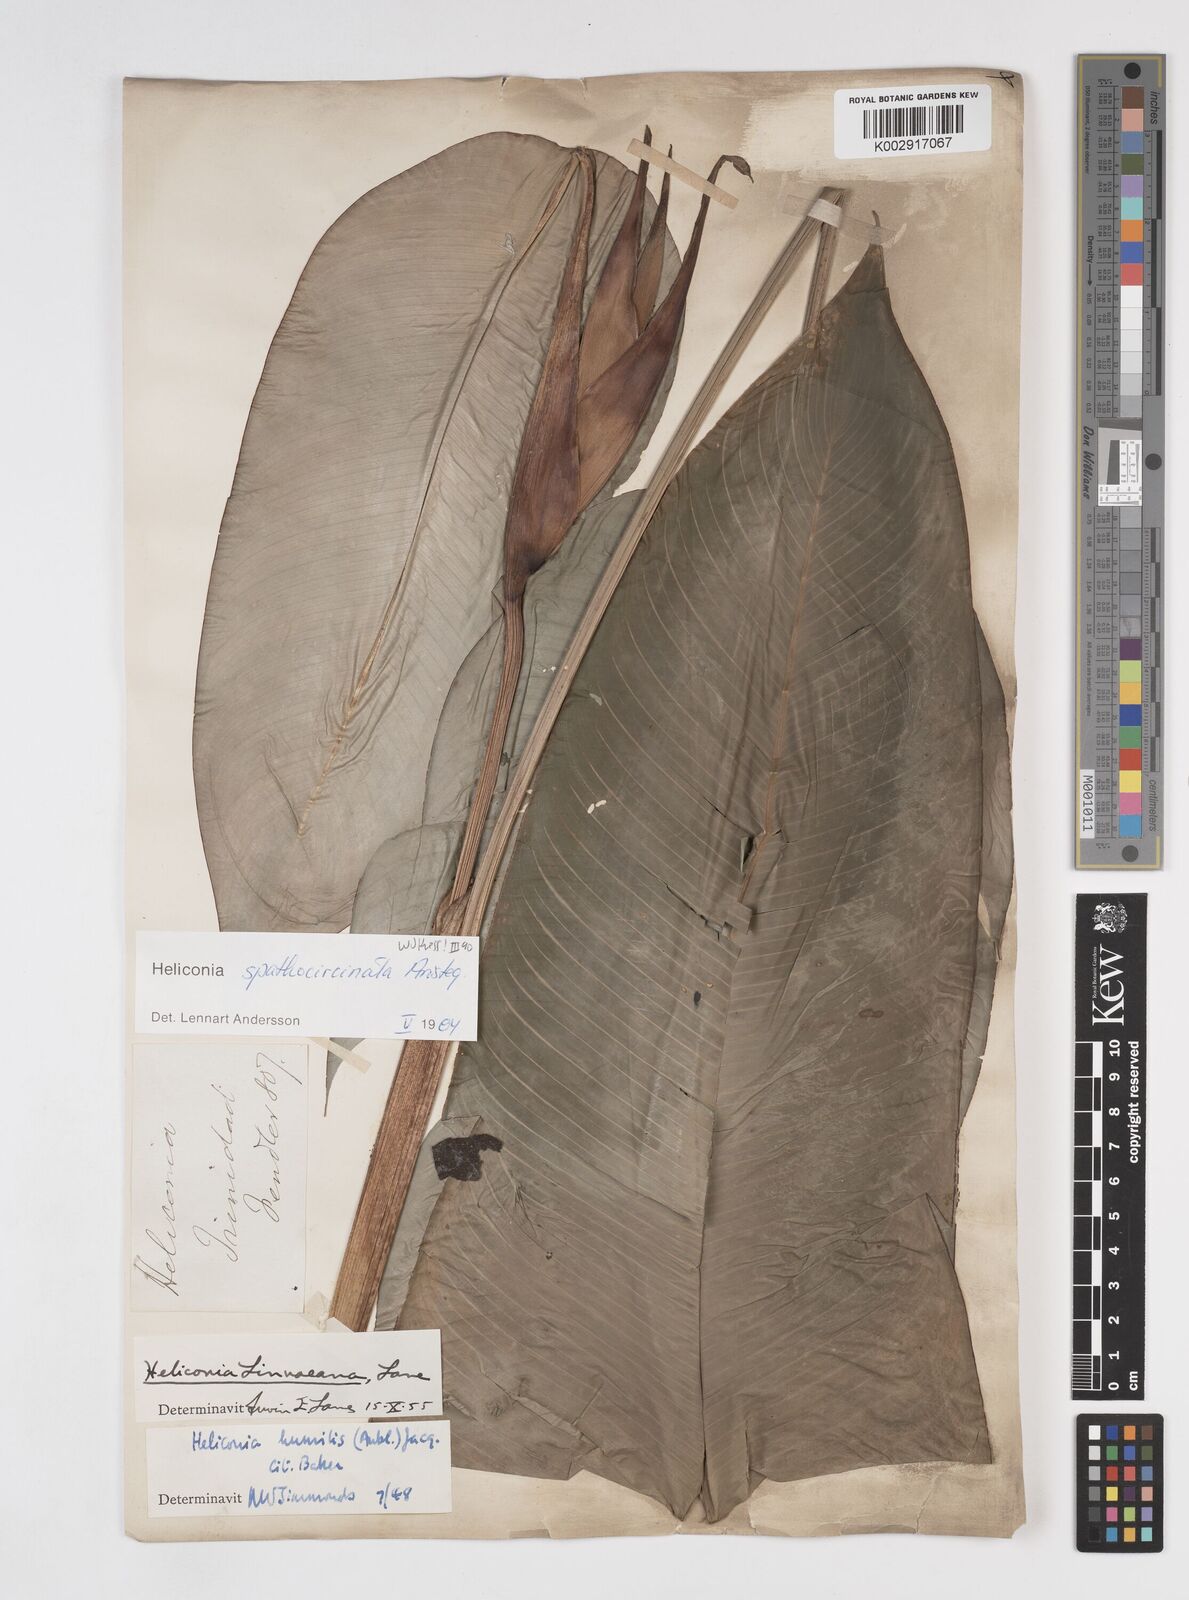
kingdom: Plantae
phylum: Tracheophyta
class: Liliopsida
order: Zingiberales
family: Heliconiaceae
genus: Heliconia
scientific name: Heliconia spathocircinata
